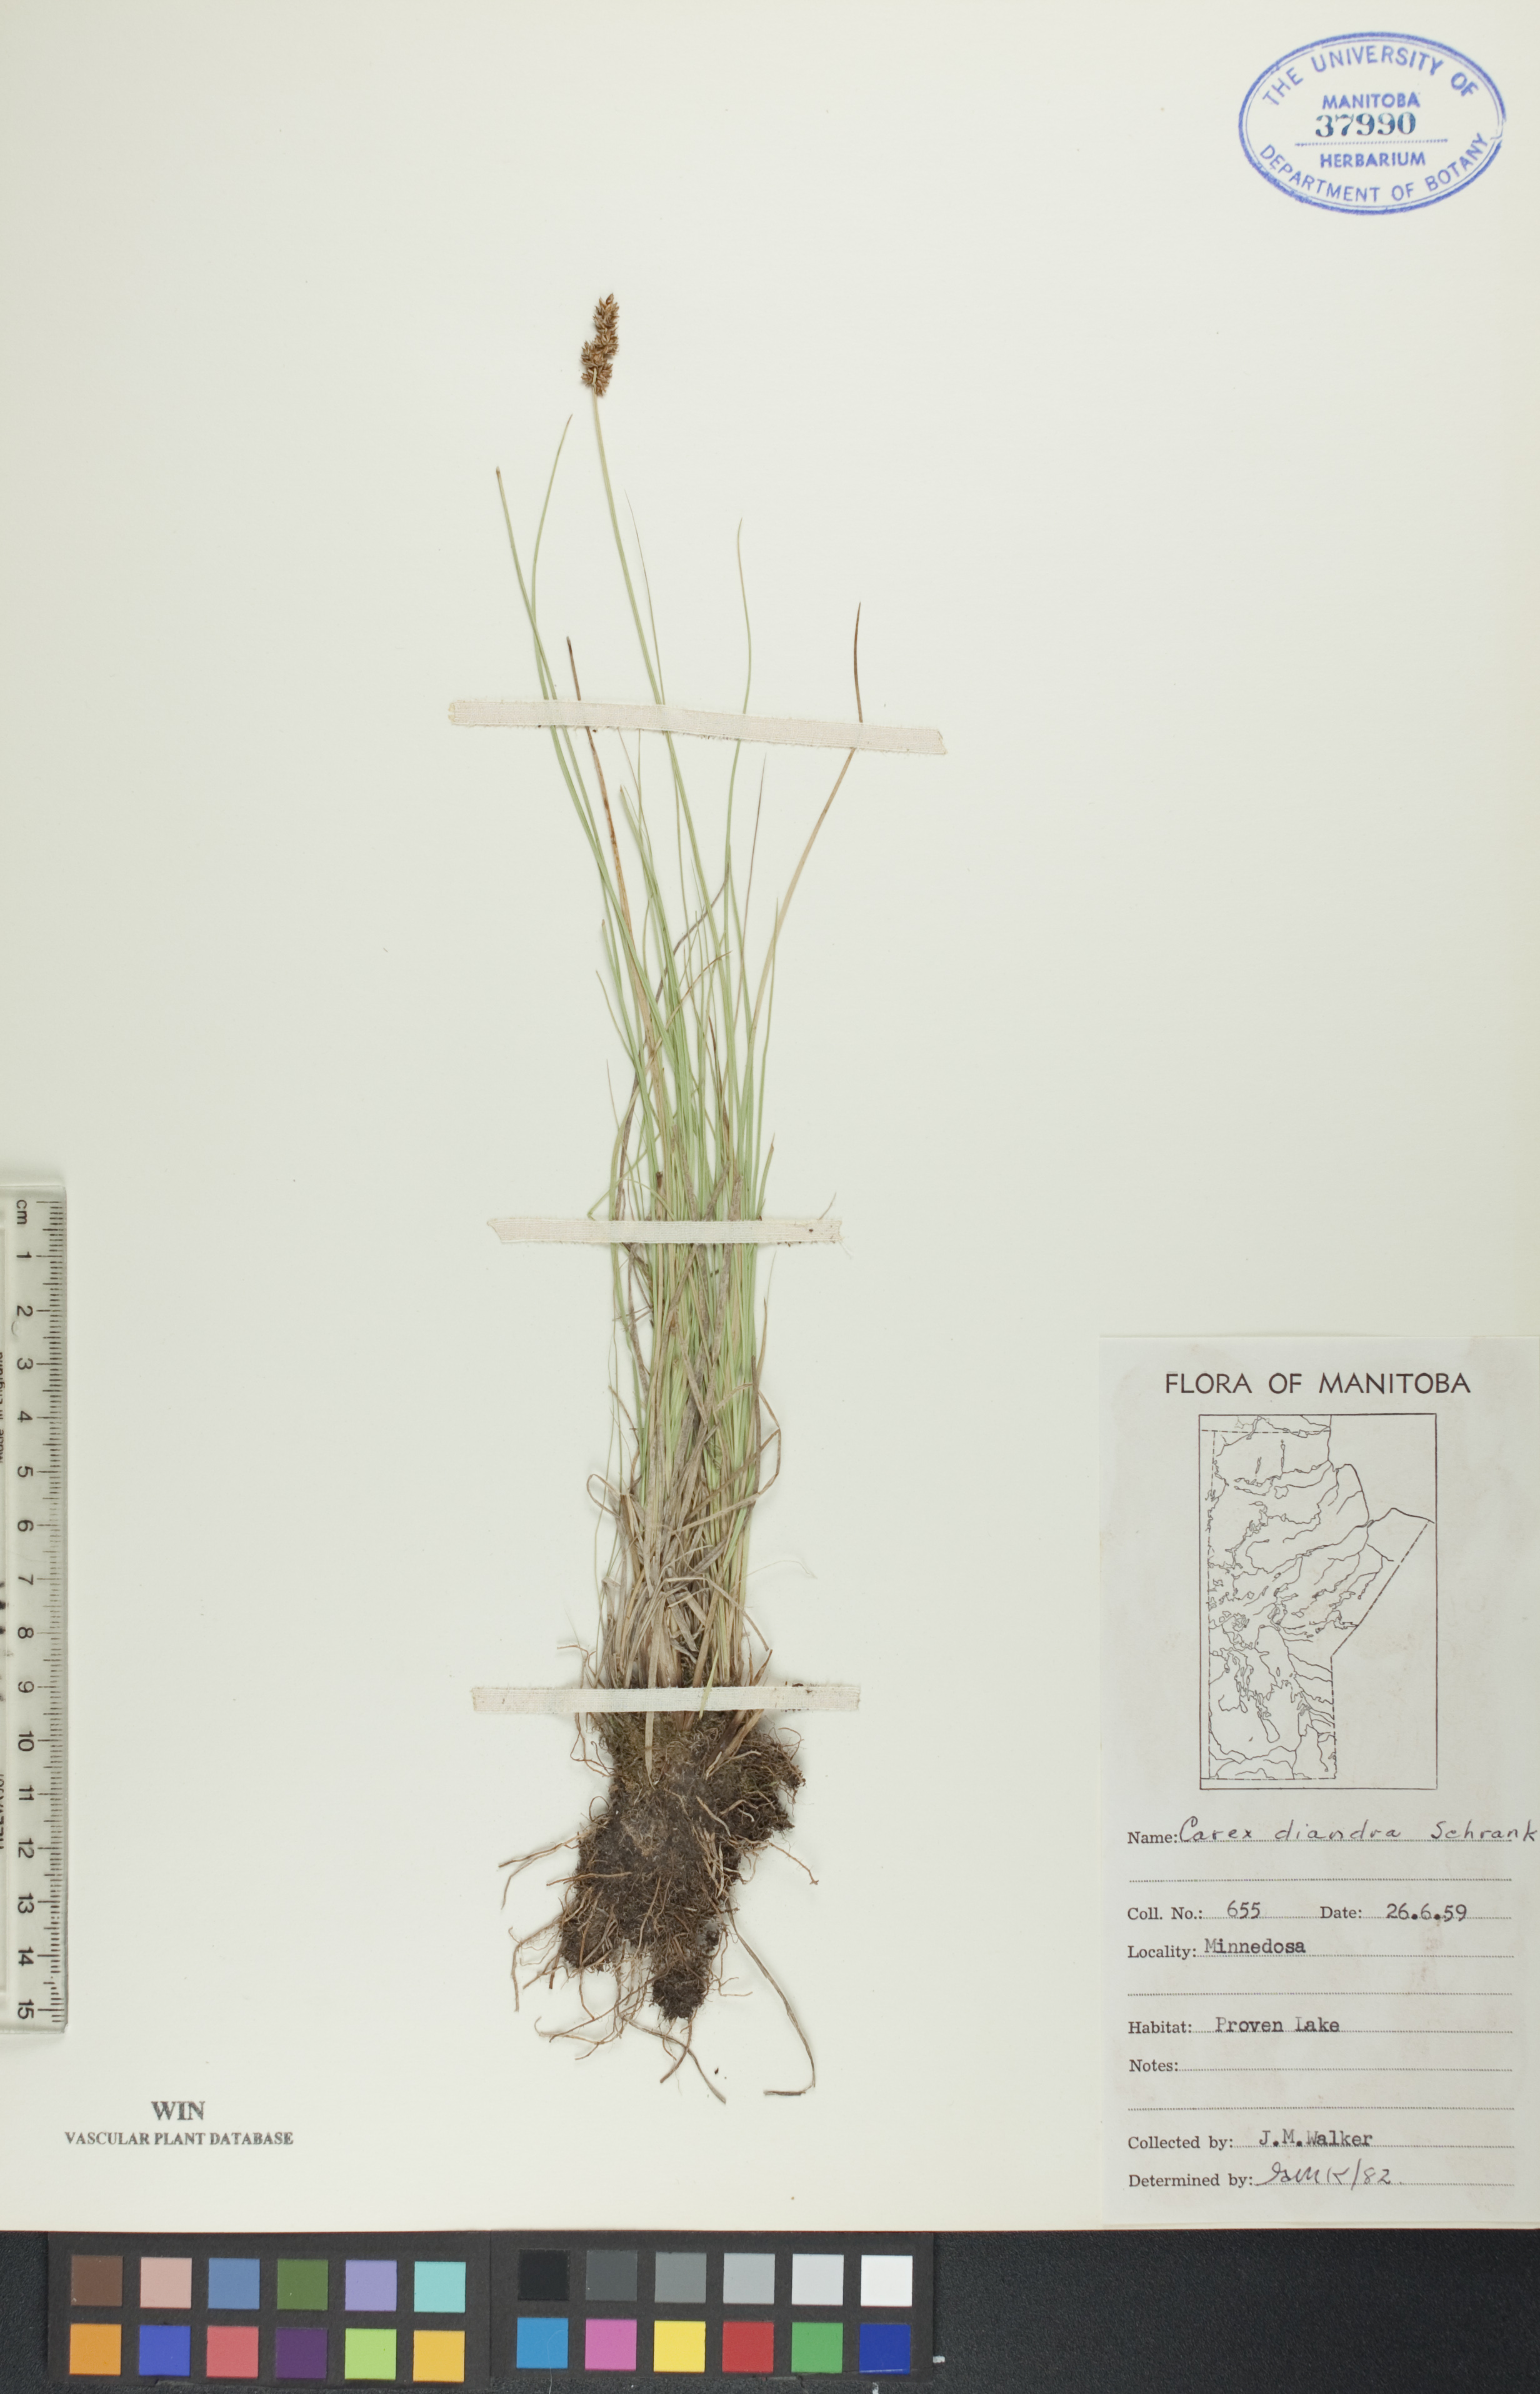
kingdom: Plantae
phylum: Tracheophyta
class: Liliopsida
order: Poales
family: Cyperaceae
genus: Carex
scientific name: Carex diandra
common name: Lesser tussock-sedge
